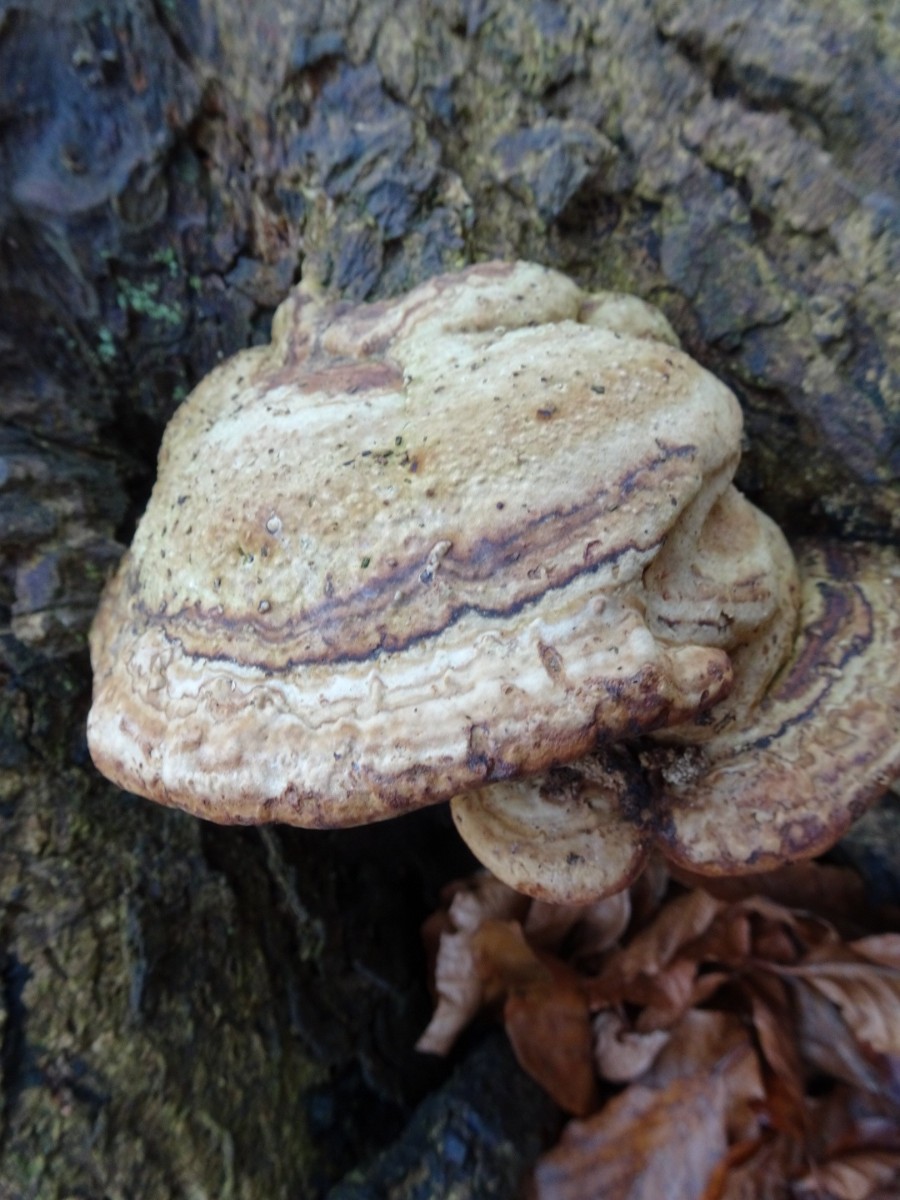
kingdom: Fungi
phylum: Basidiomycota
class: Agaricomycetes
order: Polyporales
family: Polyporaceae
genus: Fomes
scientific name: Fomes fomentarius
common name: tøndersvamp
